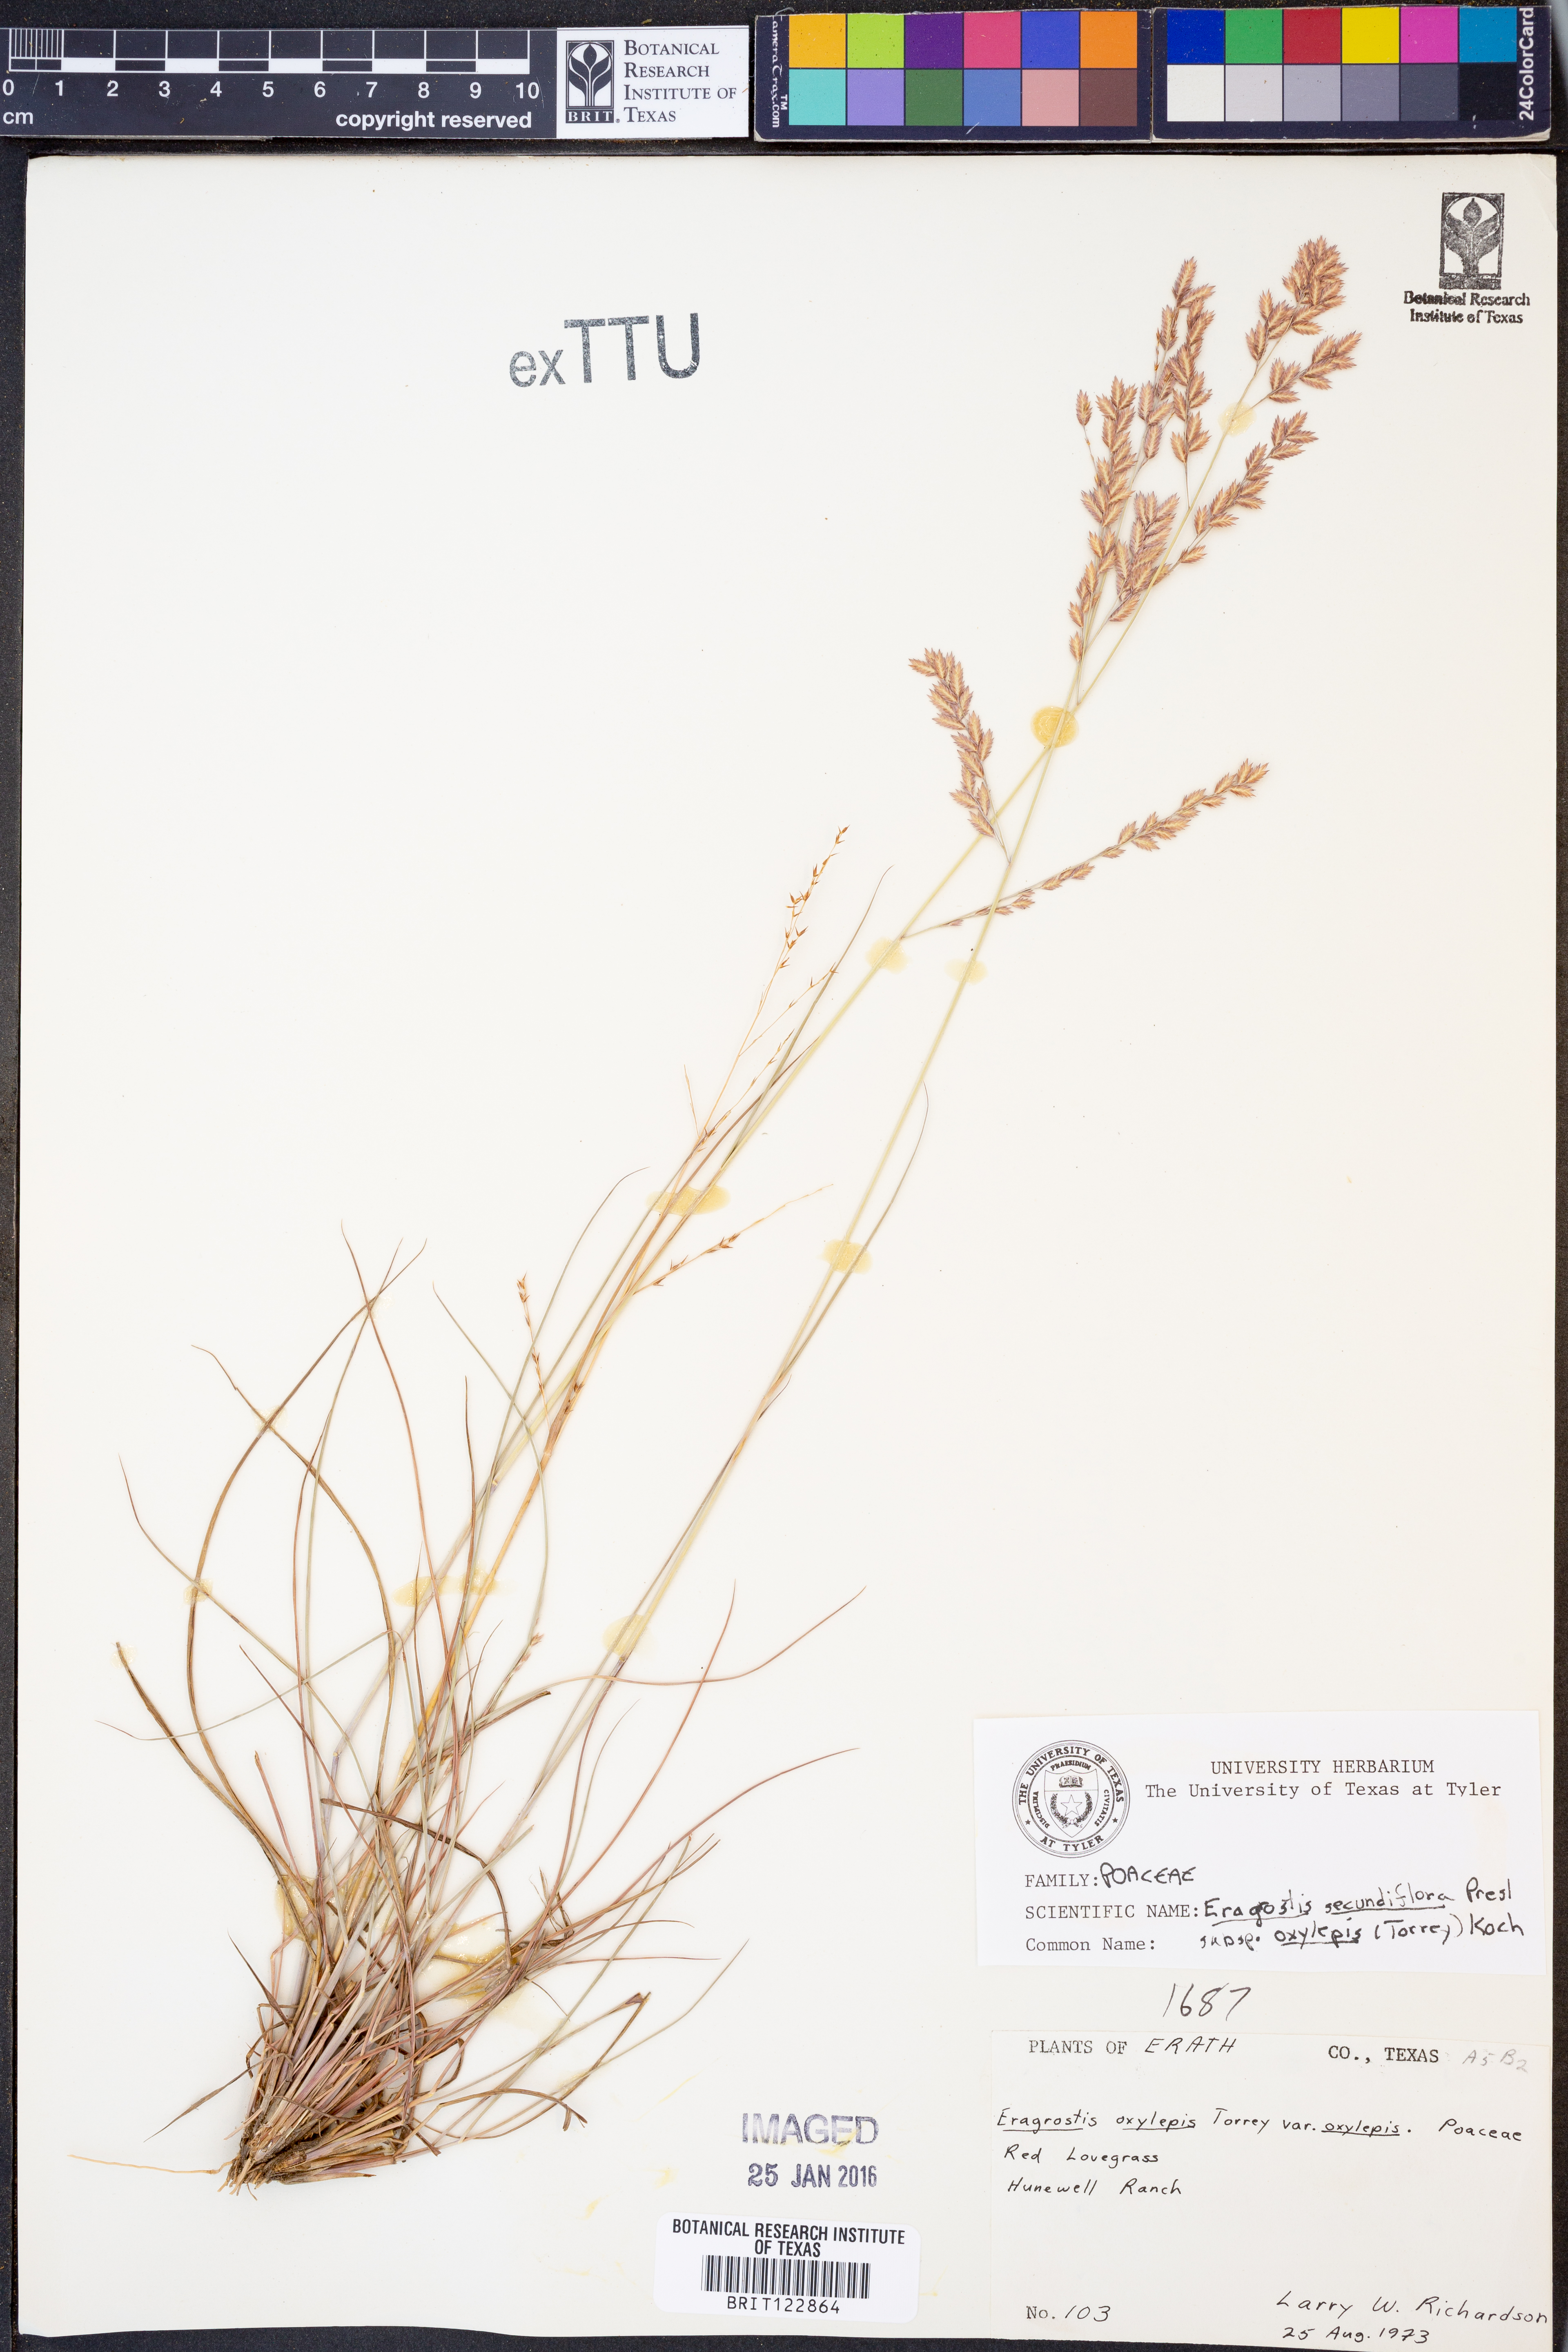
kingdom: Plantae
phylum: Tracheophyta
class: Liliopsida
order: Poales
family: Poaceae
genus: Eragrostis
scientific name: Eragrostis secundiflora
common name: Red love grass
